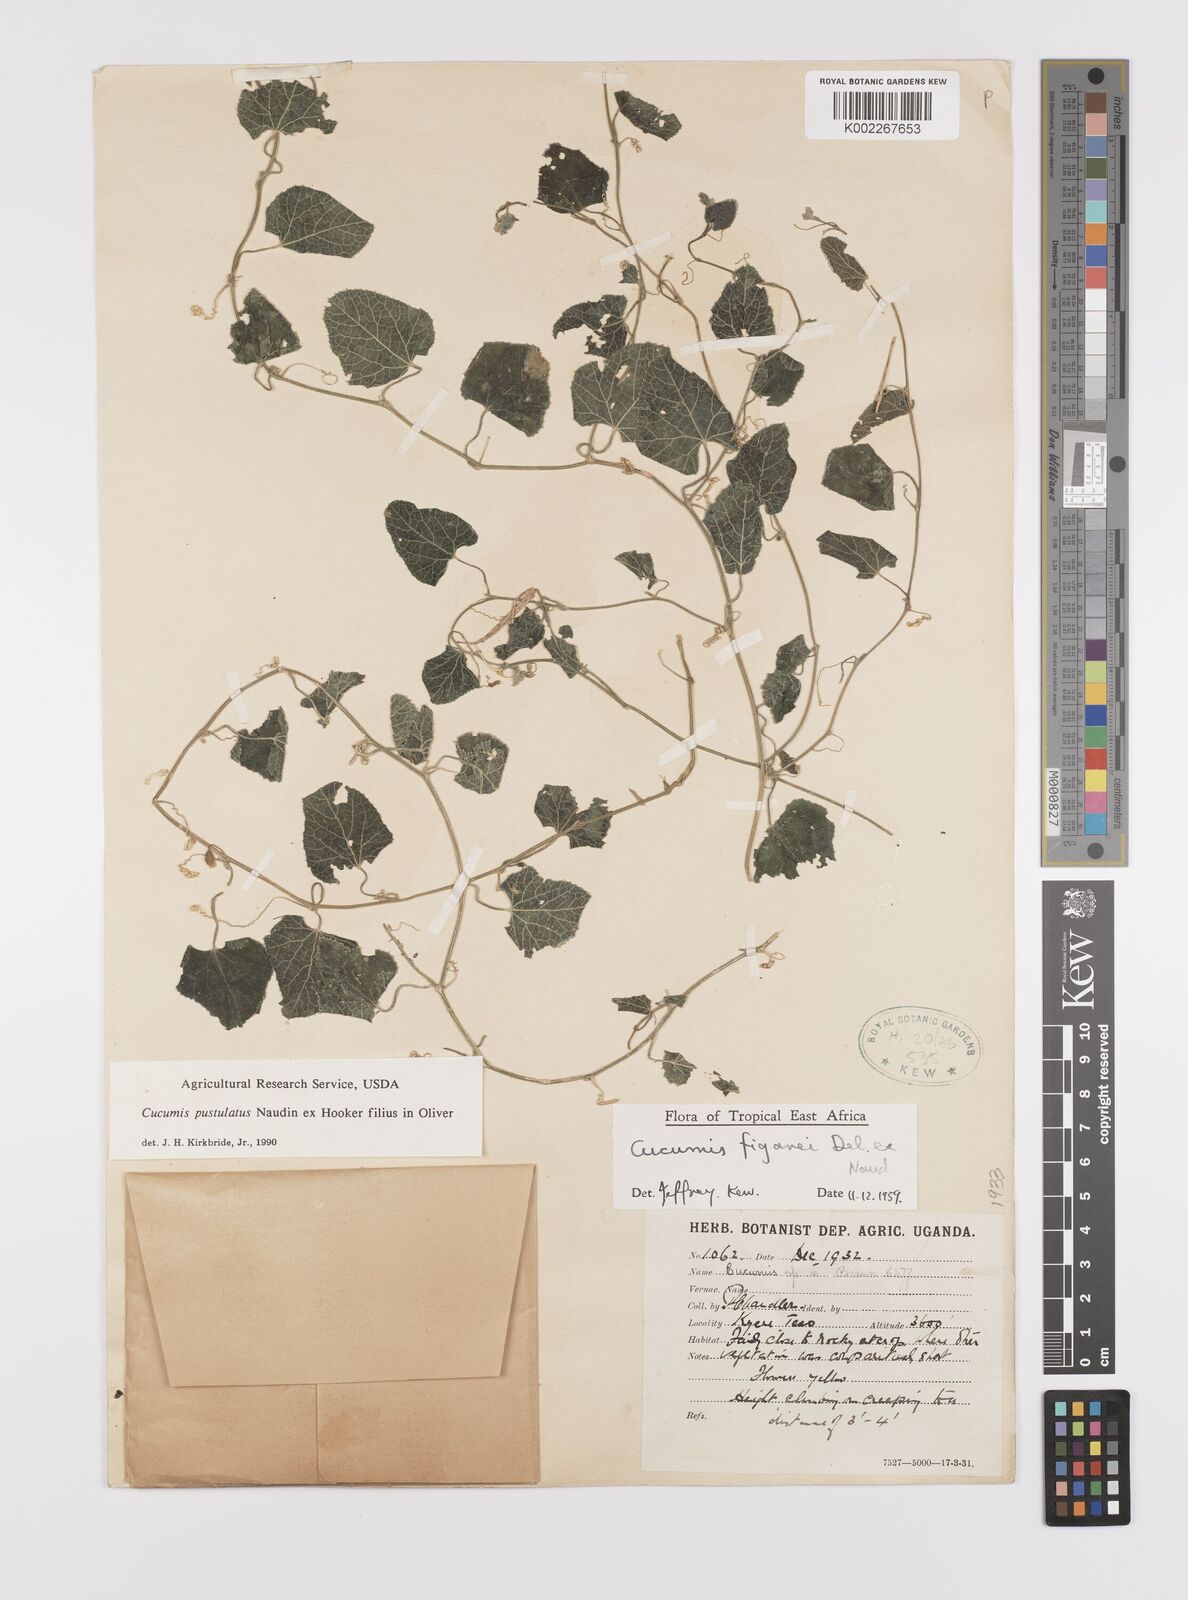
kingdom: Plantae
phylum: Tracheophyta
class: Magnoliopsida
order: Cucurbitales
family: Cucurbitaceae
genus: Cucumis
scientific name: Cucumis pustulatus
